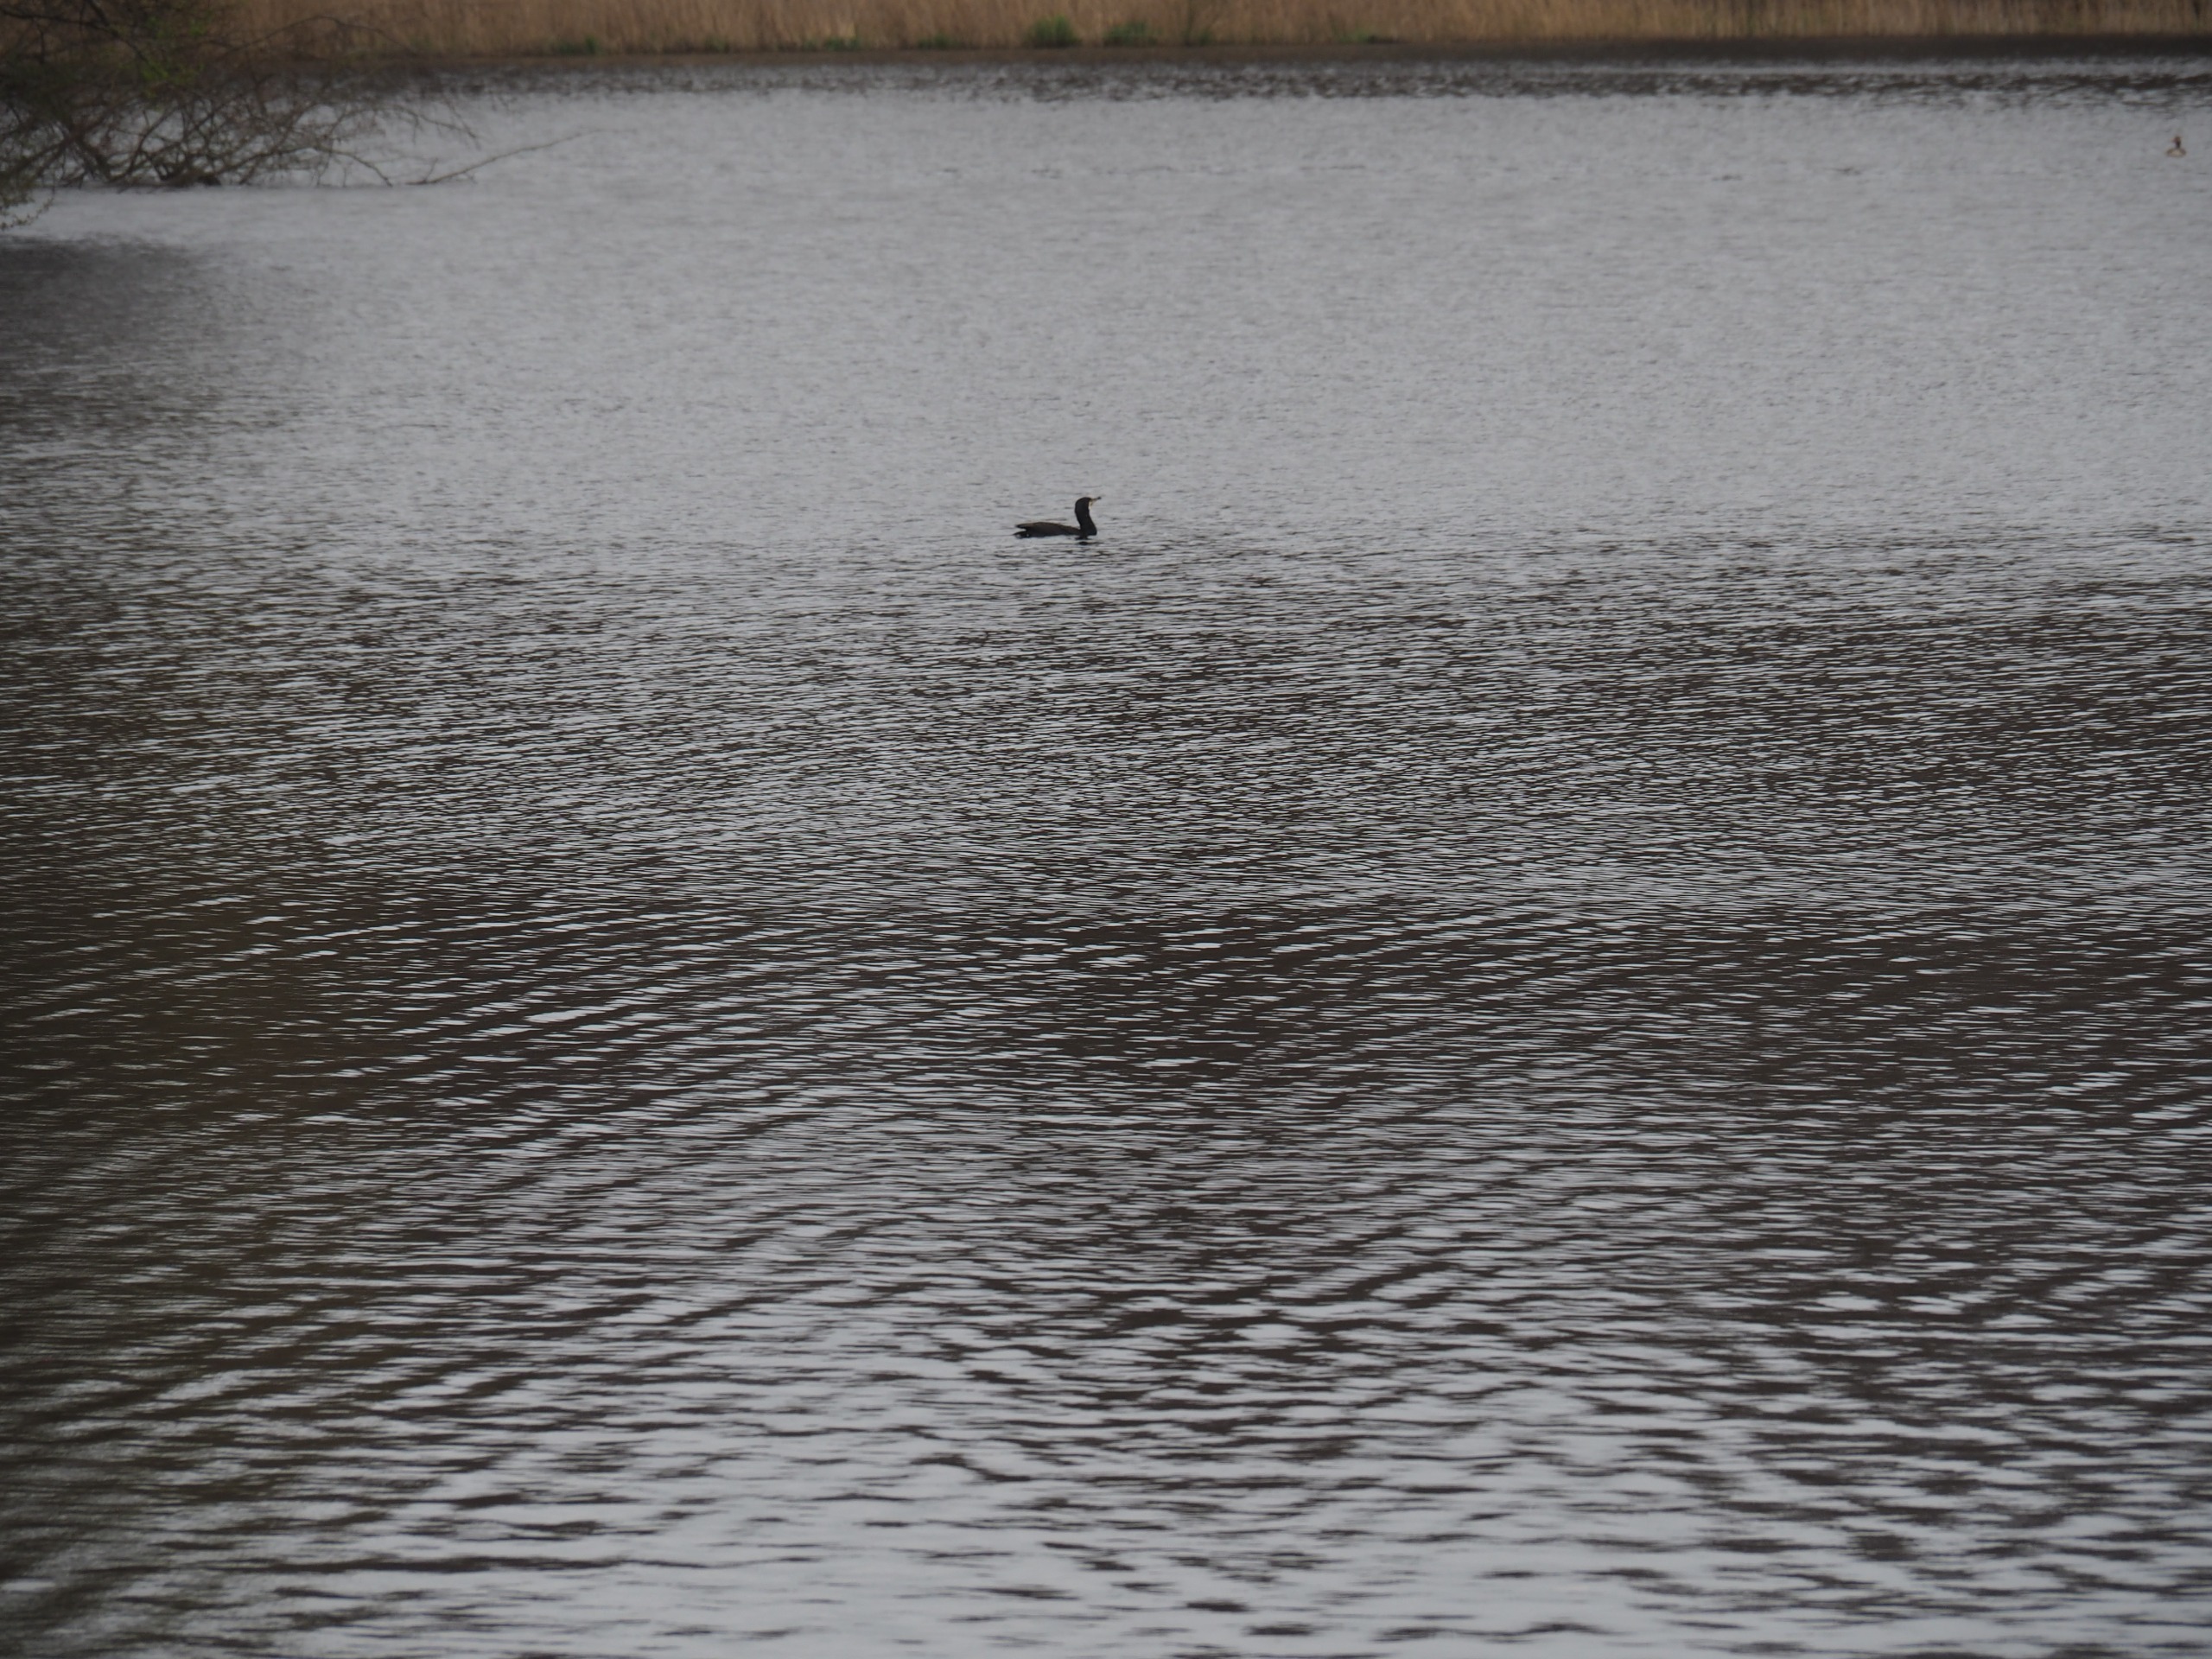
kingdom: Animalia
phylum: Chordata
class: Aves
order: Suliformes
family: Phalacrocoracidae
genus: Phalacrocorax
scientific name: Phalacrocorax carbo
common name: Skarv
